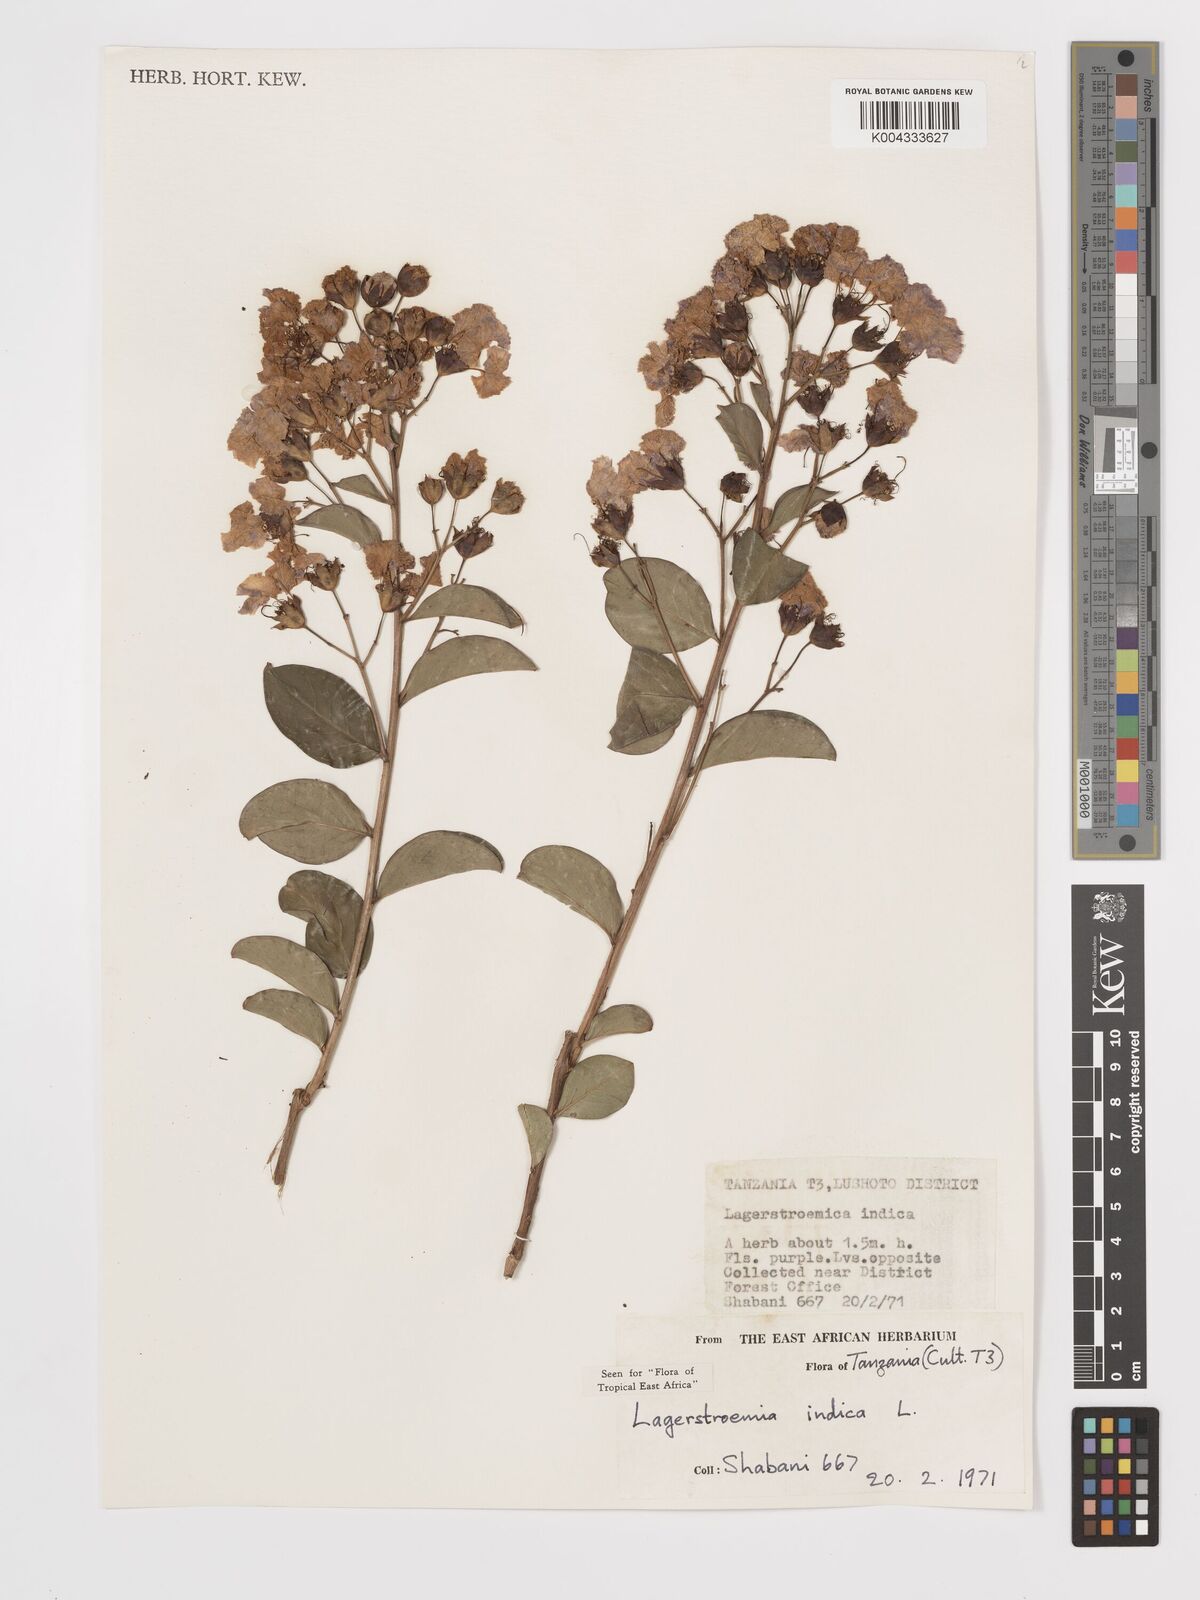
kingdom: Plantae
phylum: Tracheophyta
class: Magnoliopsida
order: Myrtales
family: Lythraceae
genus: Lagerstroemia
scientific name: Lagerstroemia indica
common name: Crape-myrtle
